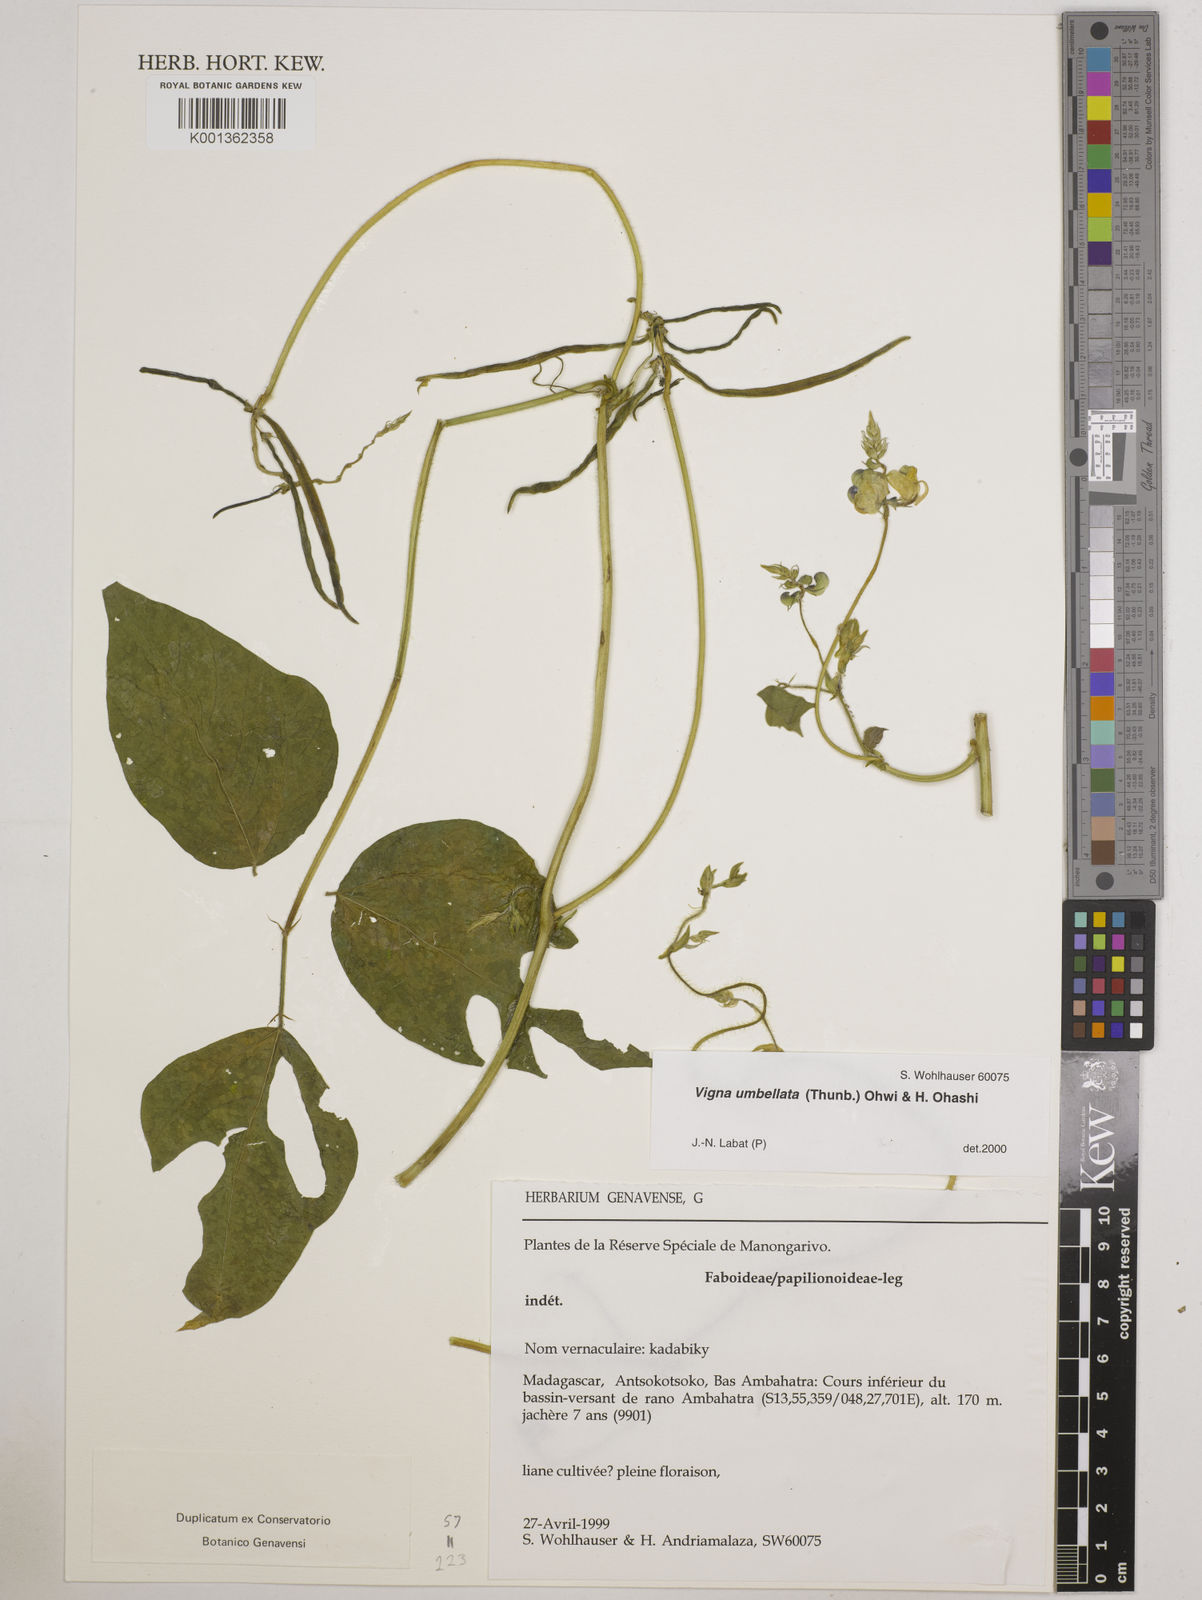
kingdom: Plantae
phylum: Tracheophyta
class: Magnoliopsida
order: Fabales
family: Fabaceae
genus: Vigna
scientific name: Vigna umbellata
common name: Oriental-bean
